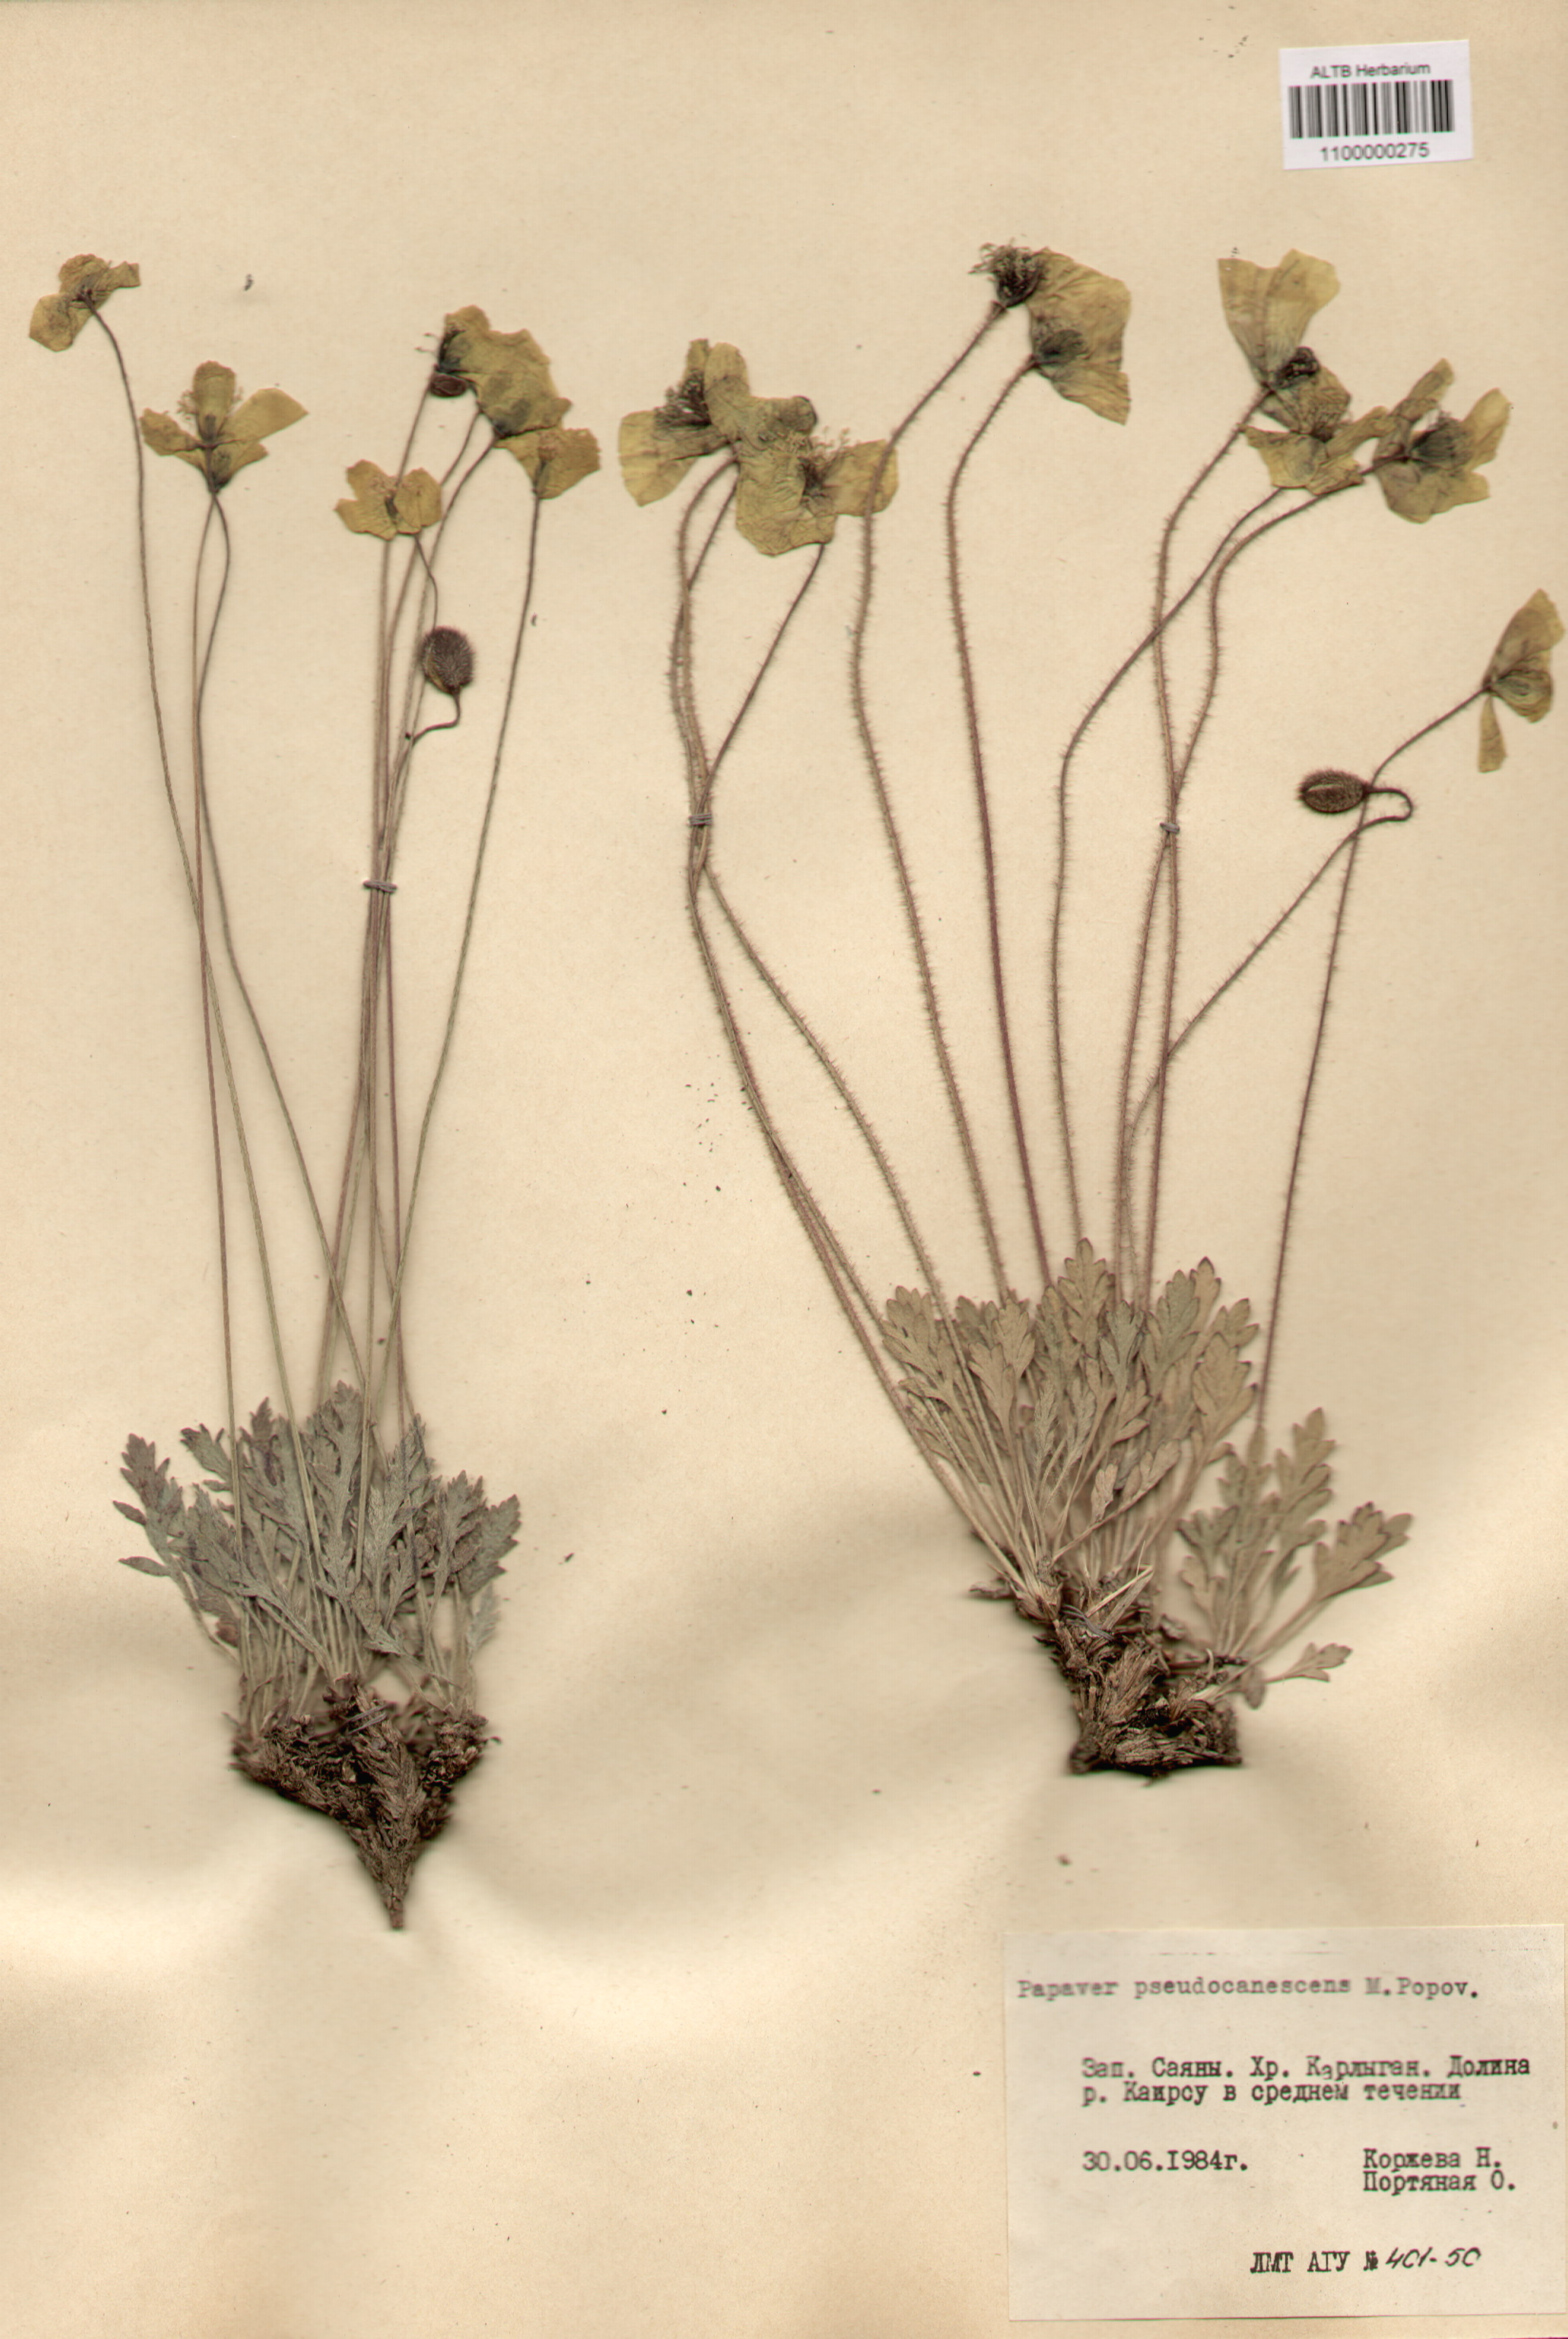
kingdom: Plantae
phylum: Tracheophyta
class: Magnoliopsida
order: Ranunculales
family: Papaveraceae
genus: Papaver
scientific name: Papaver canescens
